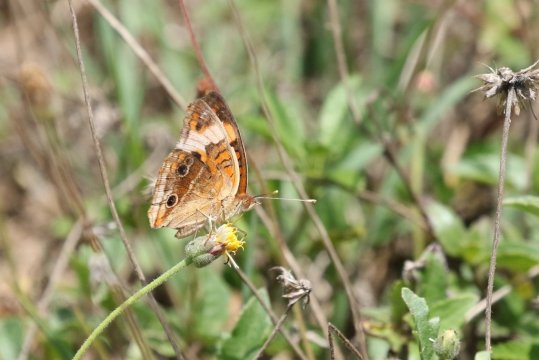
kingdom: Animalia
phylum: Arthropoda
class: Insecta
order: Lepidoptera
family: Nymphalidae
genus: Junonia
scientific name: Junonia lavinia
